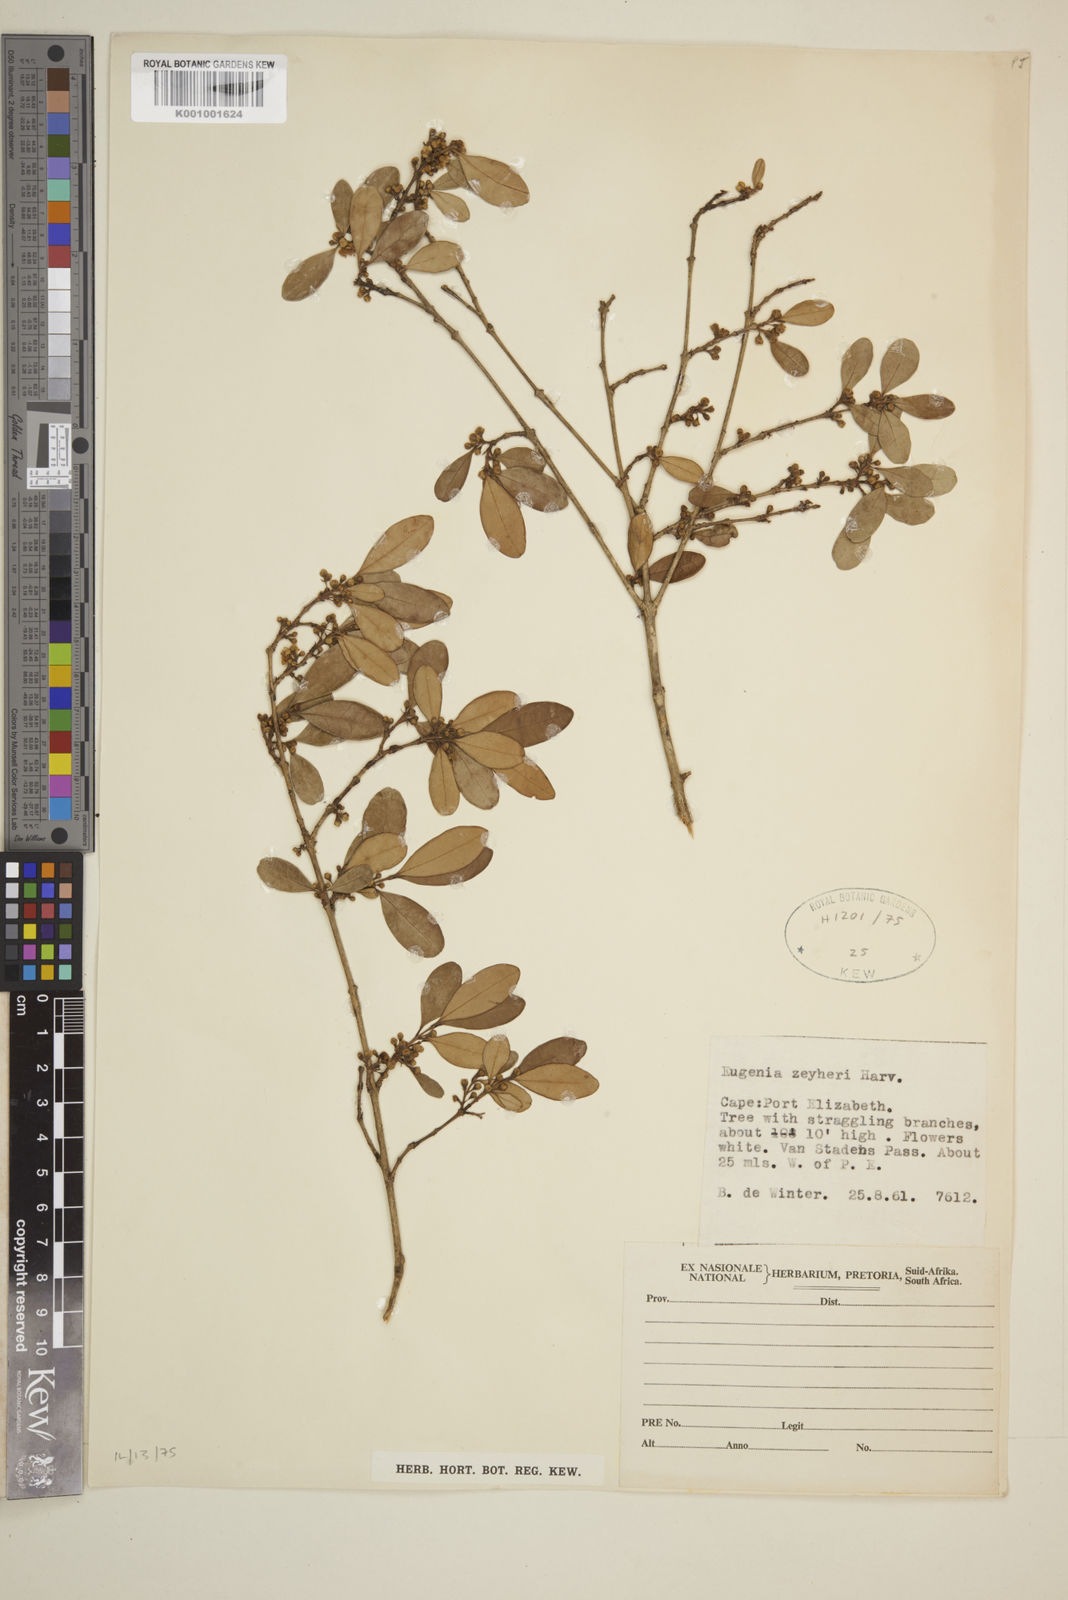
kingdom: Plantae
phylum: Tracheophyta
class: Magnoliopsida
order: Myrtales
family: Myrtaceae
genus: Eugenia
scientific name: Eugenia zeyheri
